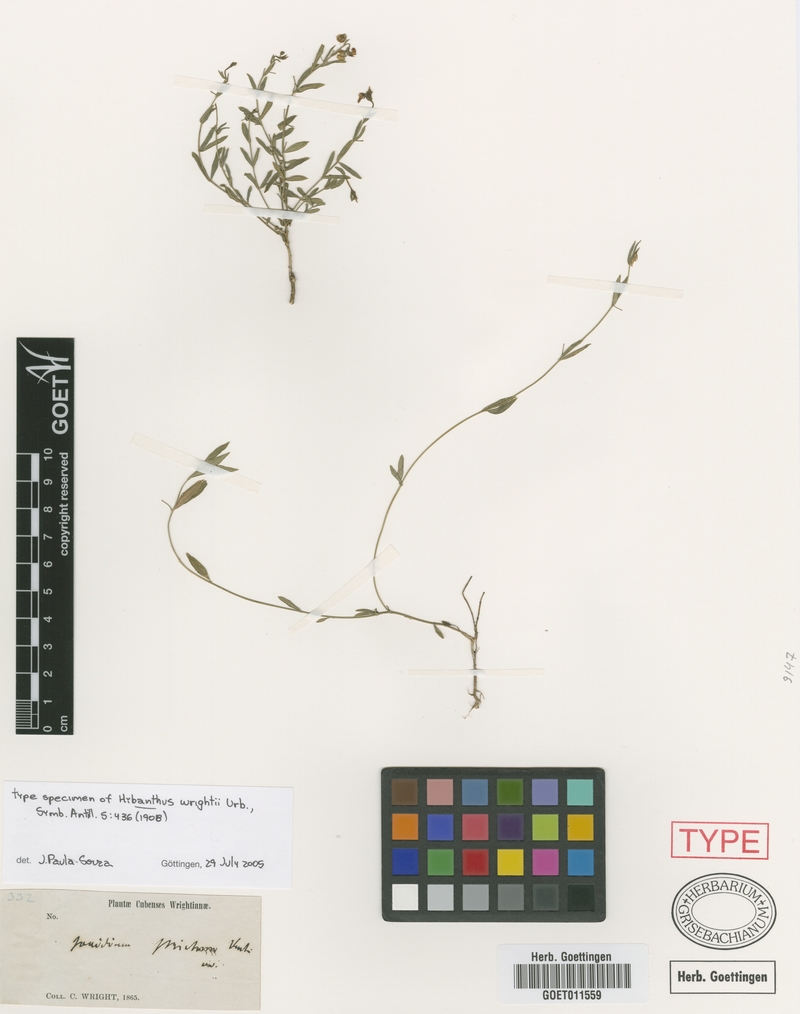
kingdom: Plantae
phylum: Tracheophyta
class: Magnoliopsida
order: Malpighiales
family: Violaceae
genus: Pombalia
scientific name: Pombalia wrightii
